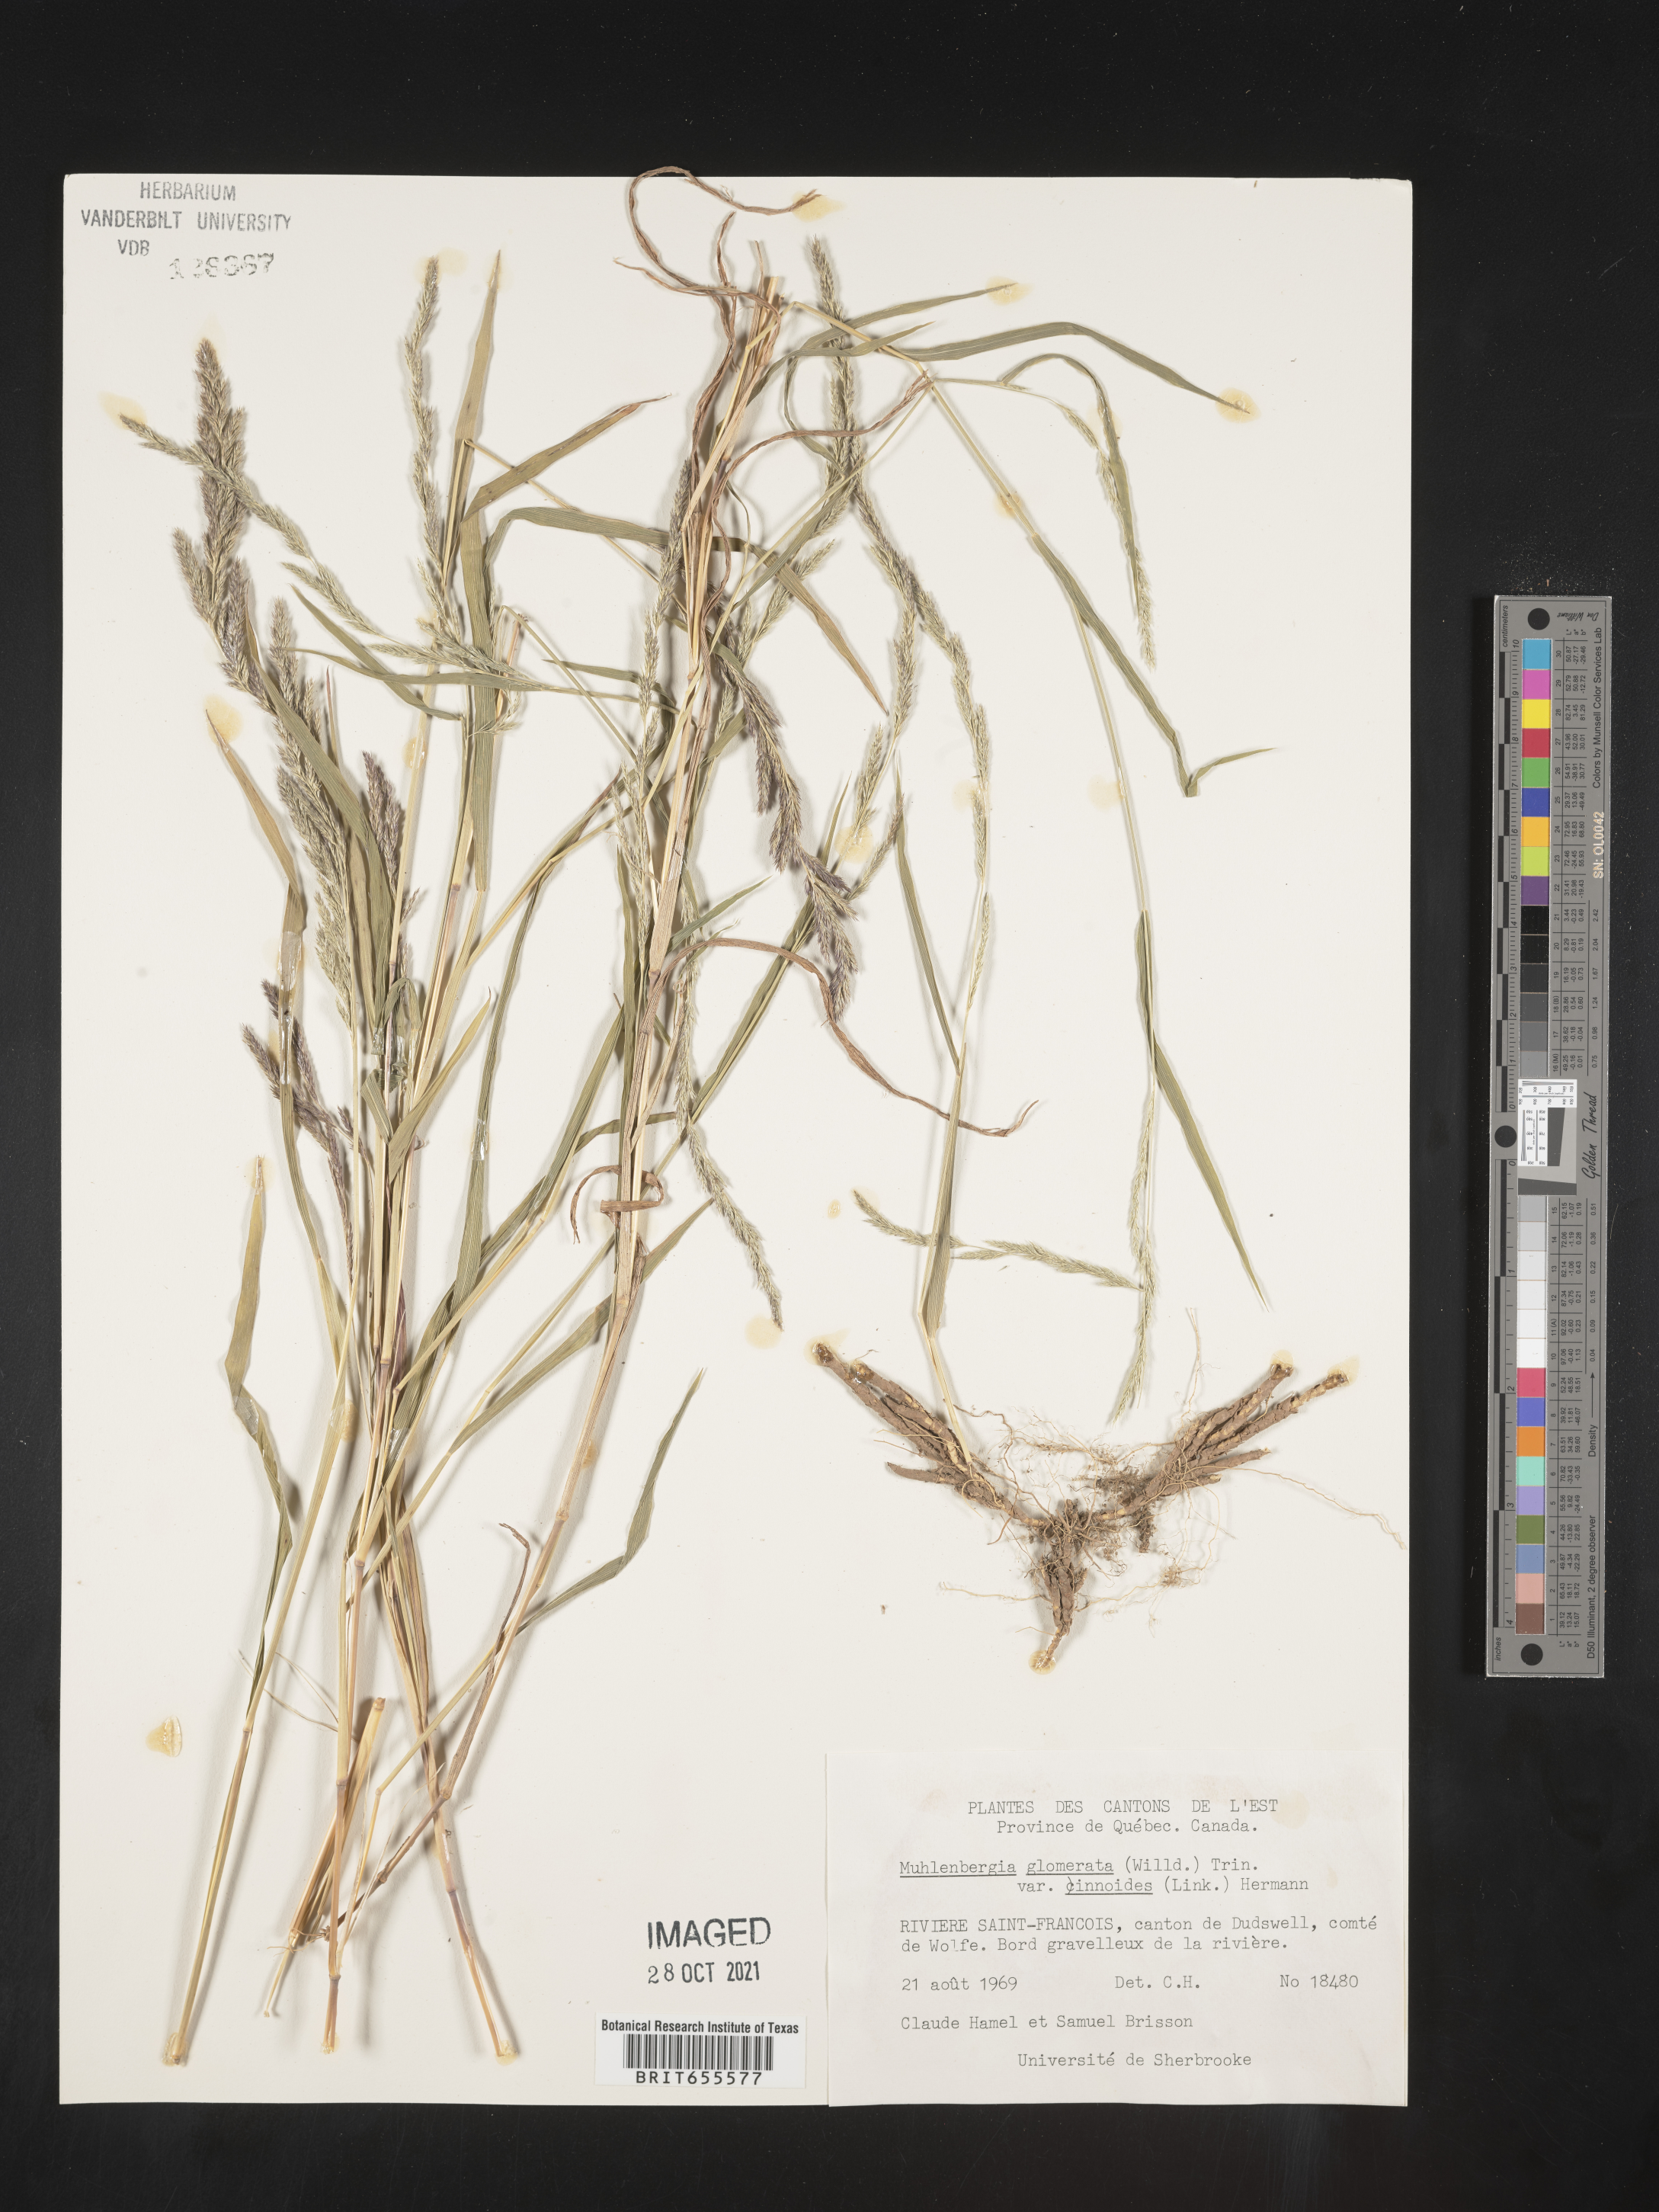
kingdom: Plantae
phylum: Tracheophyta
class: Liliopsida
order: Poales
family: Poaceae
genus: Muhlenbergia
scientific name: Muhlenbergia
